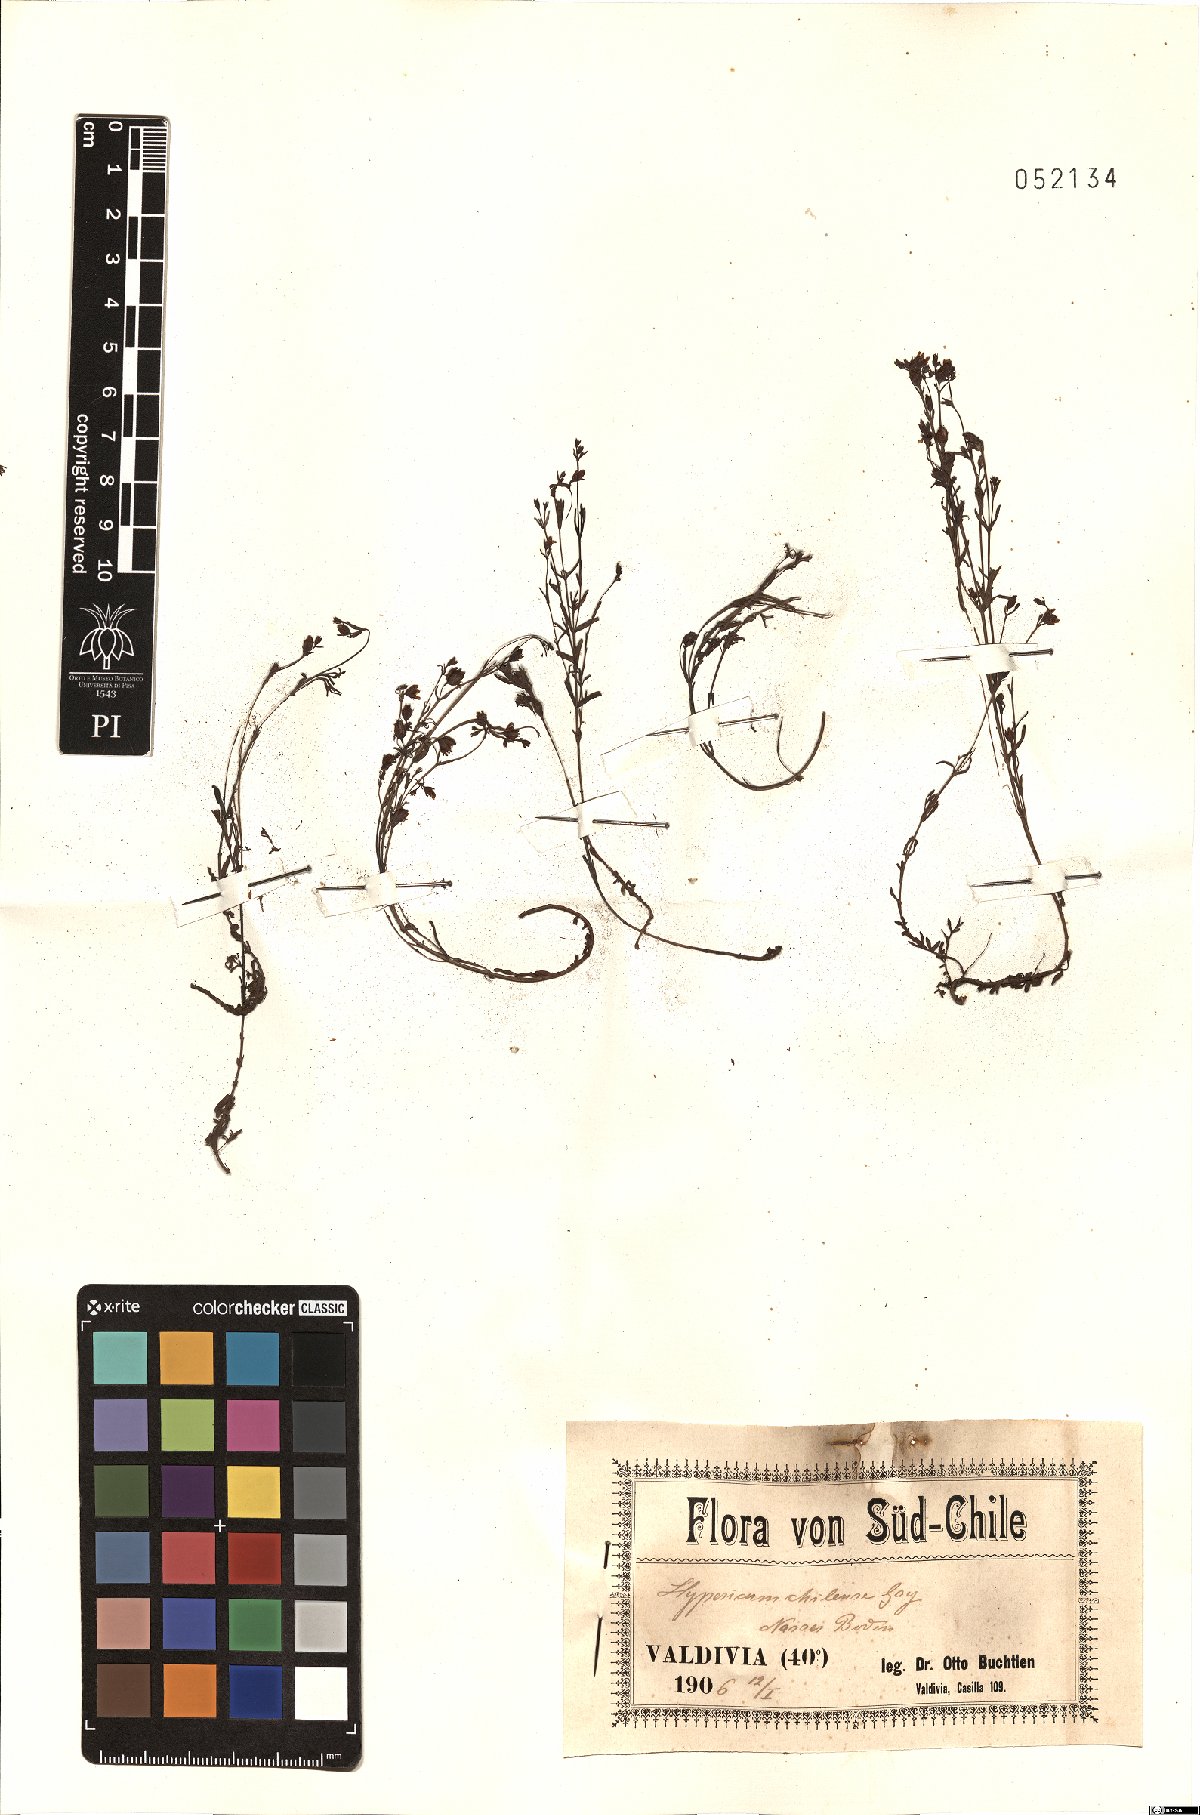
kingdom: Plantae
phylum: Tracheophyta
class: Magnoliopsida
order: Malpighiales
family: Hypericaceae
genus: Hypericum
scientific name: Hypericum caespitosum
